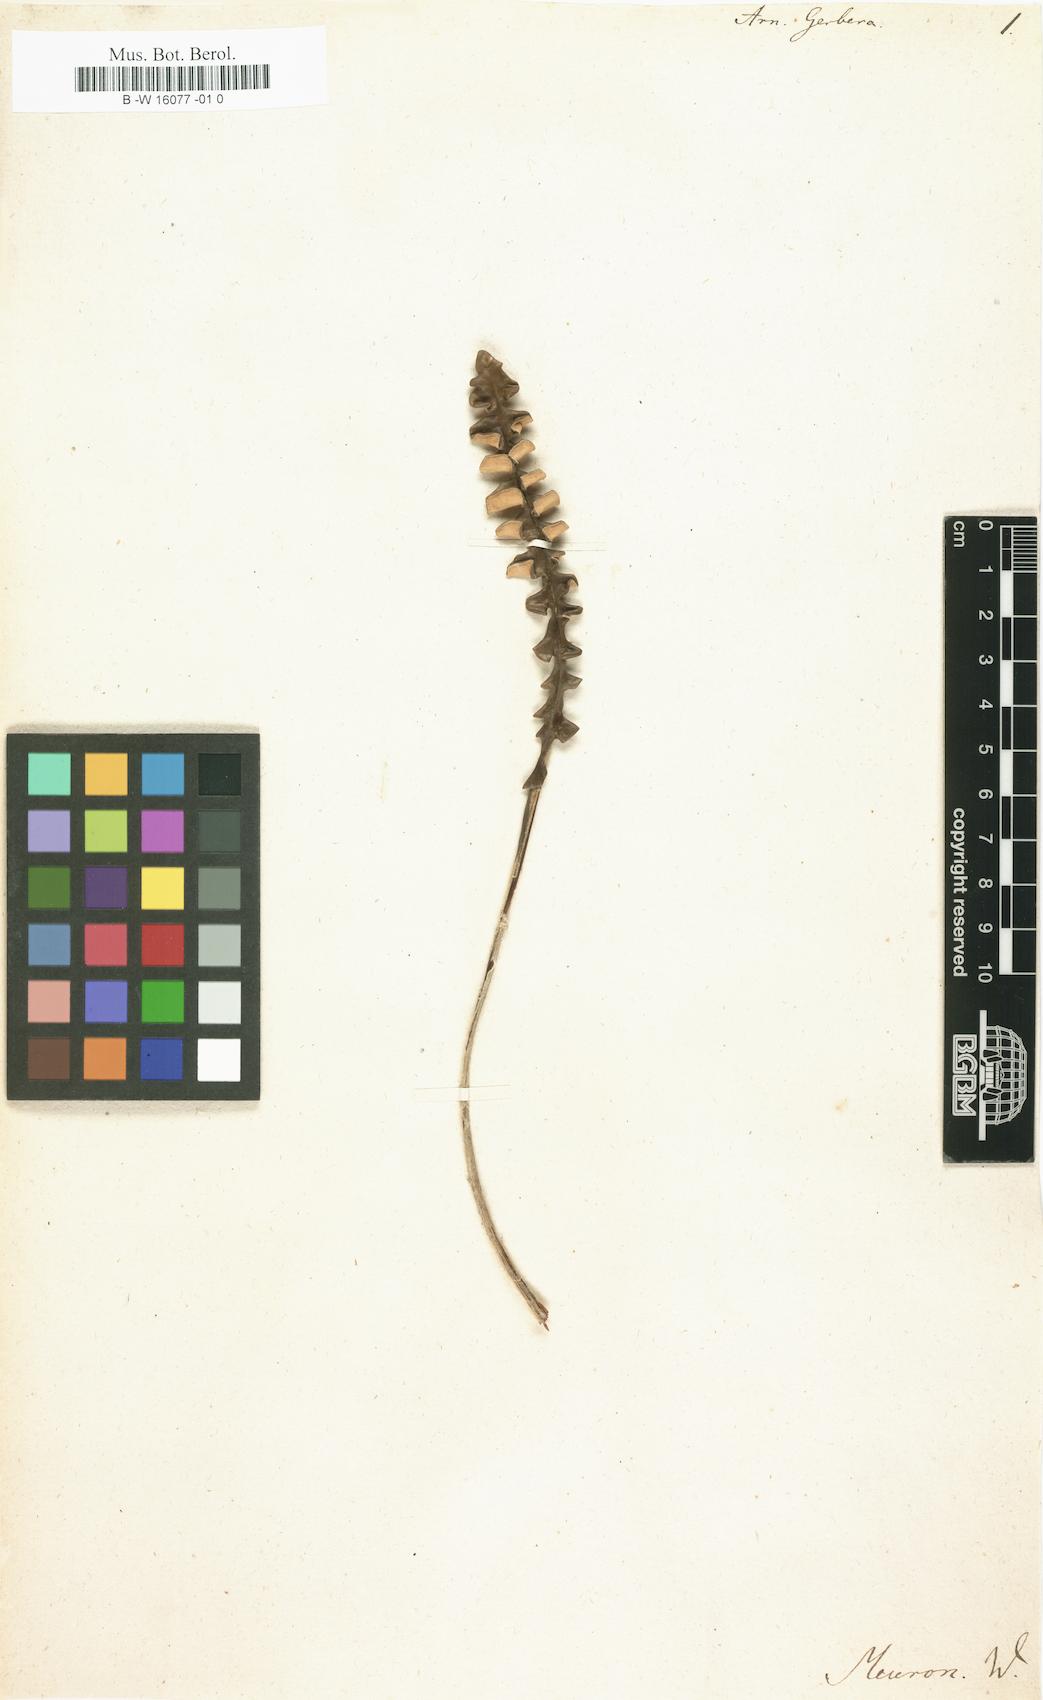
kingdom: Plantae
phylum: Tracheophyta
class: Magnoliopsida
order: Asterales
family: Asteraceae
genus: Gerbera
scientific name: Gerbera linnaei
